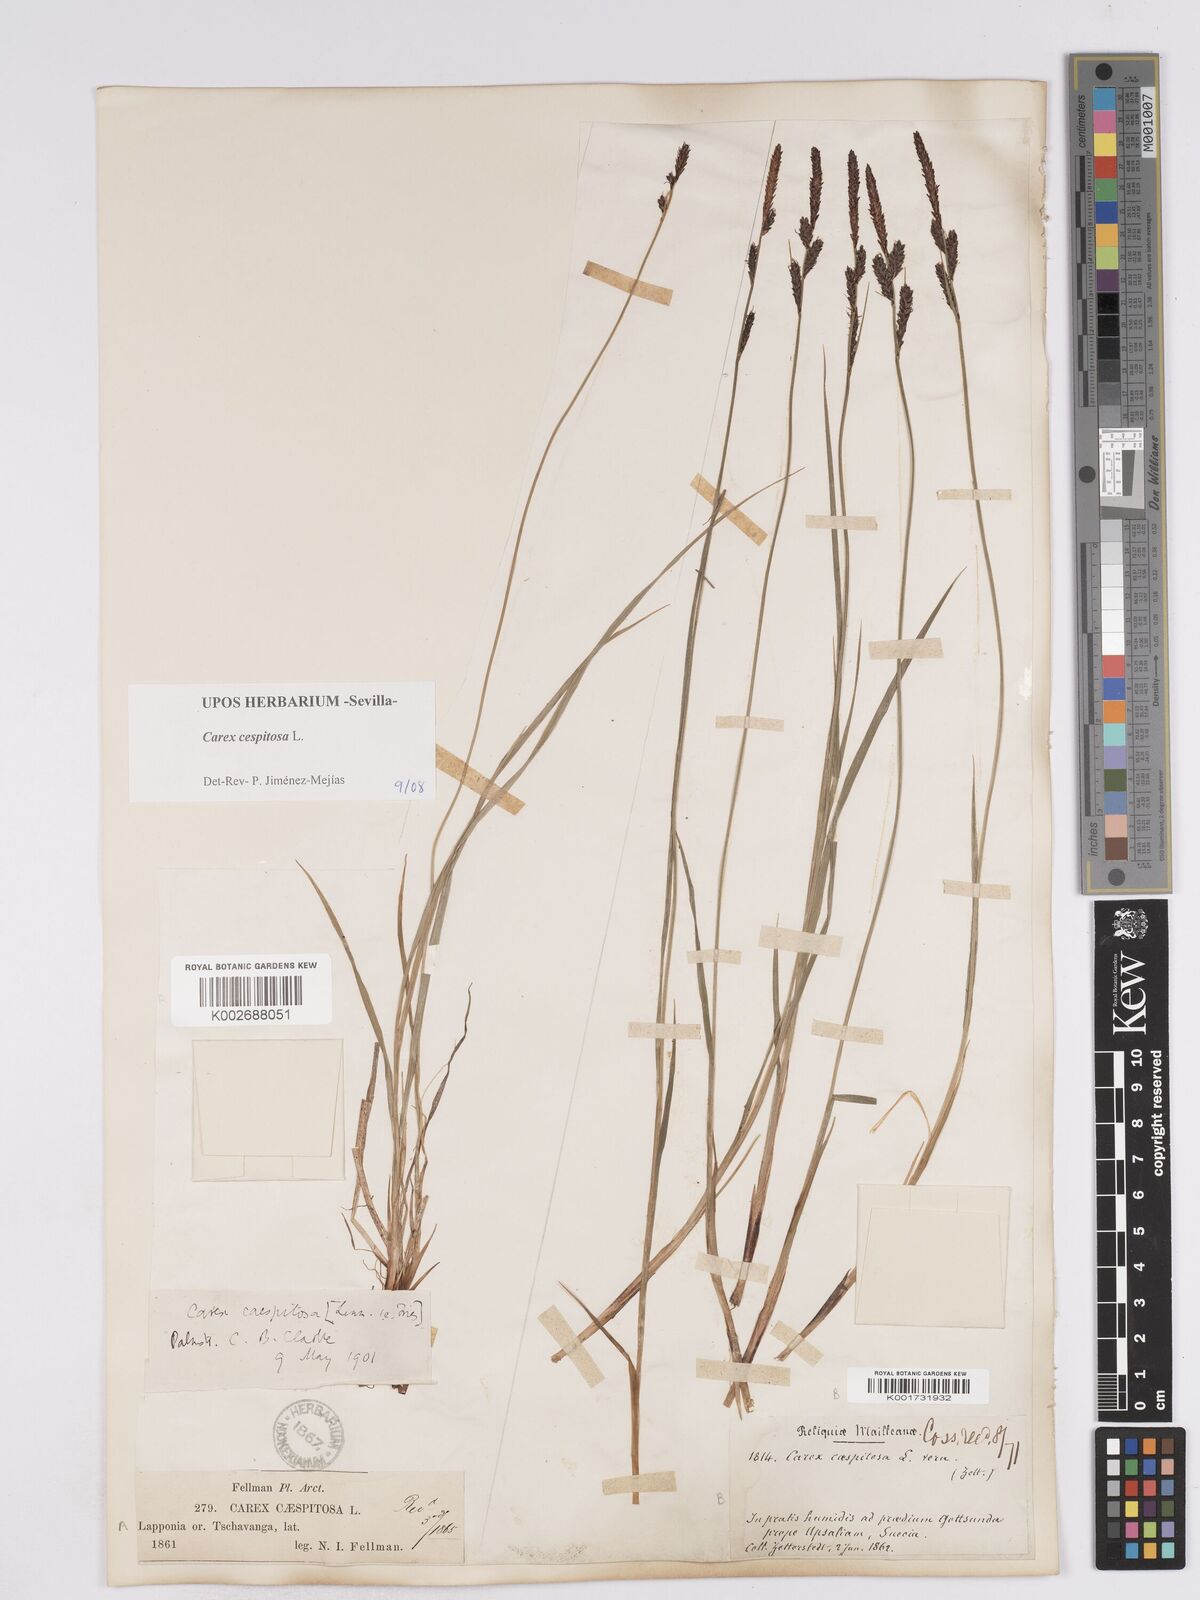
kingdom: Plantae
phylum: Tracheophyta
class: Liliopsida
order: Poales
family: Cyperaceae
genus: Carex
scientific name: Carex
